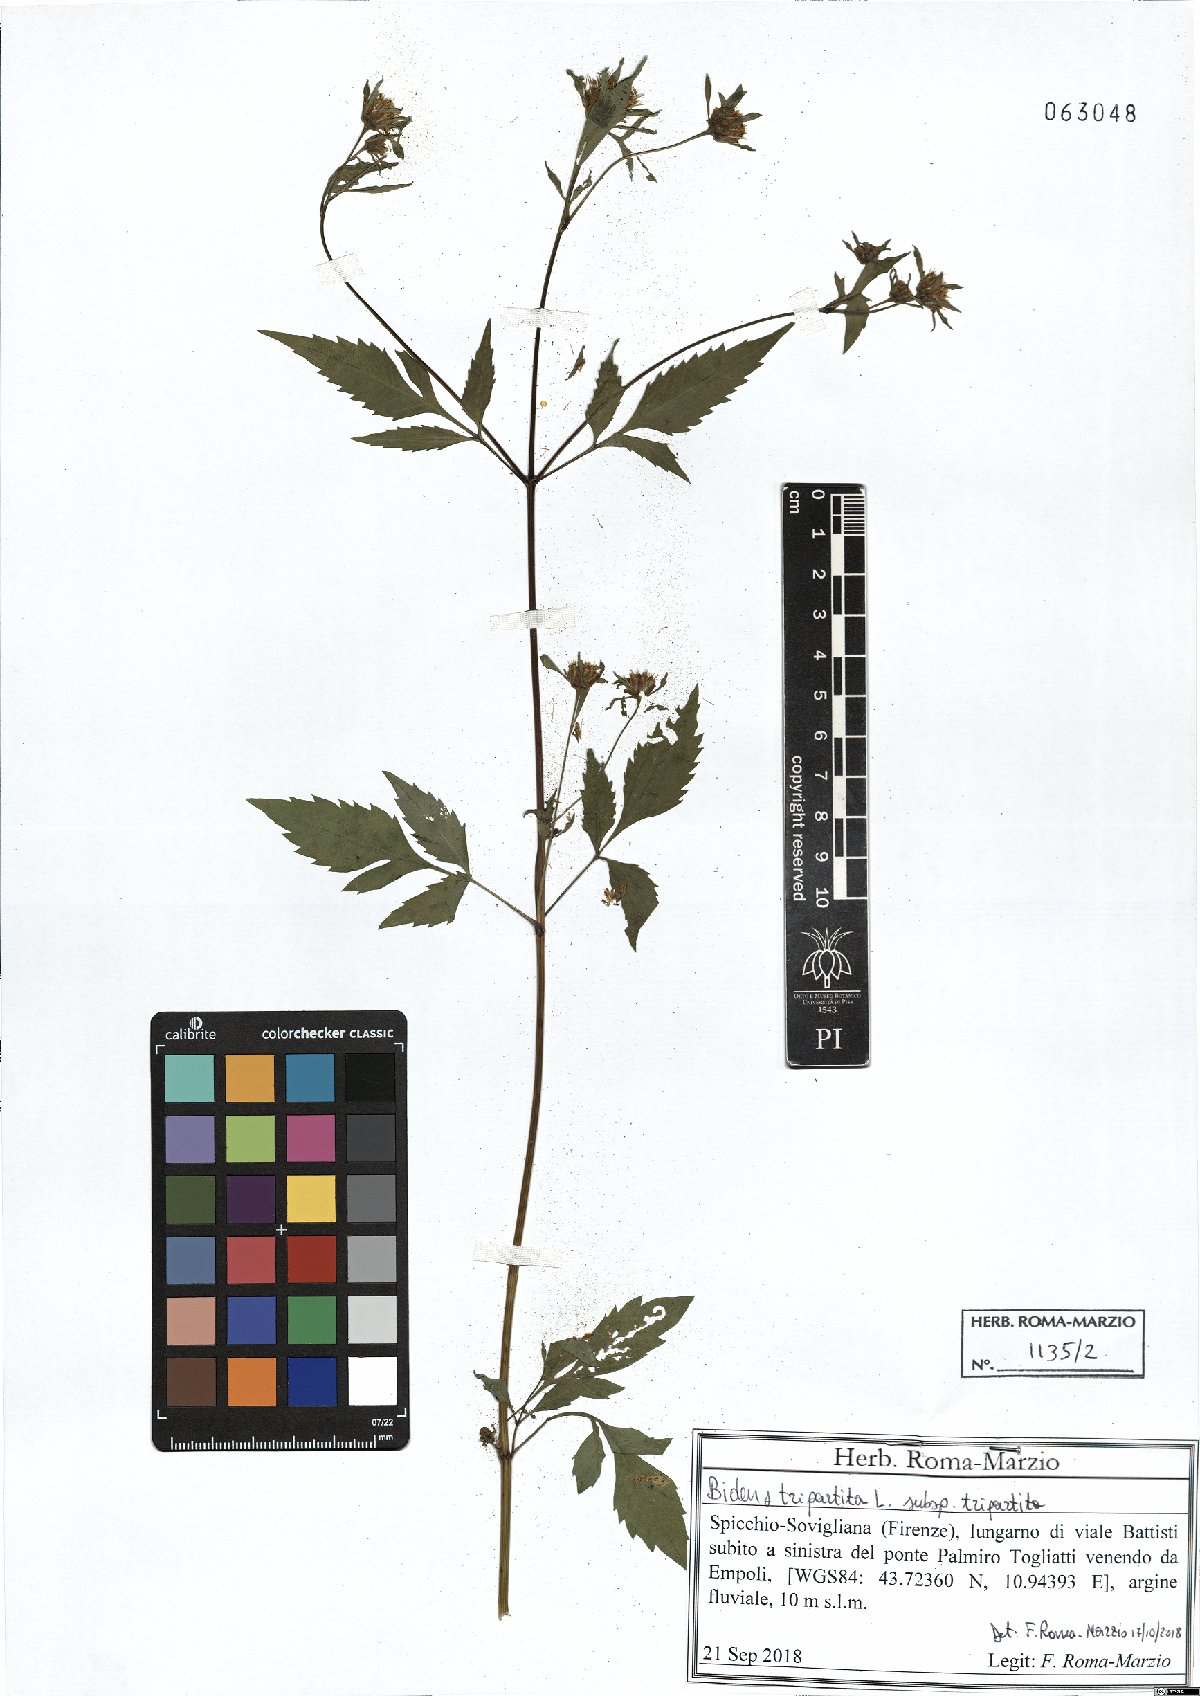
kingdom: Plantae
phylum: Tracheophyta
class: Magnoliopsida
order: Asterales
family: Asteraceae
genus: Bidens
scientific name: Bidens tripartita
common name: Trifid bur-marigold
